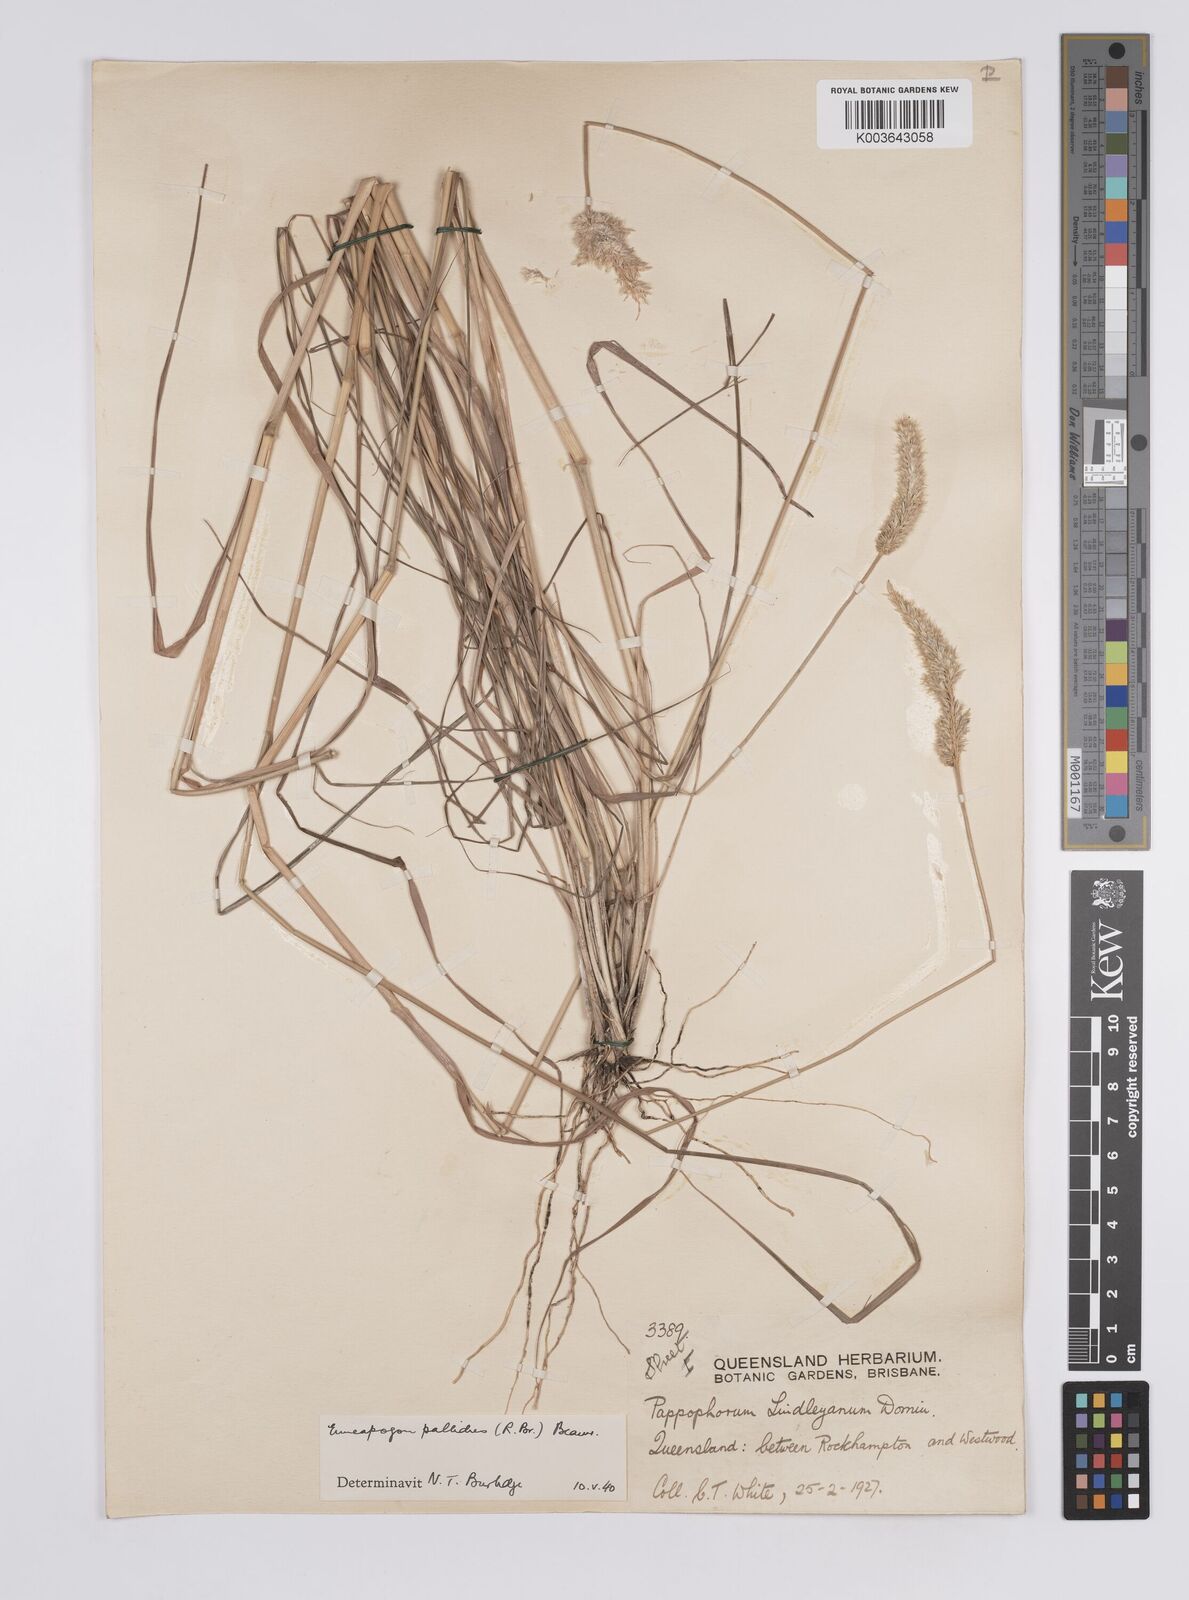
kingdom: Plantae
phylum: Tracheophyta
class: Liliopsida
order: Poales
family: Poaceae
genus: Enneapogon
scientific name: Enneapogon pallidus
